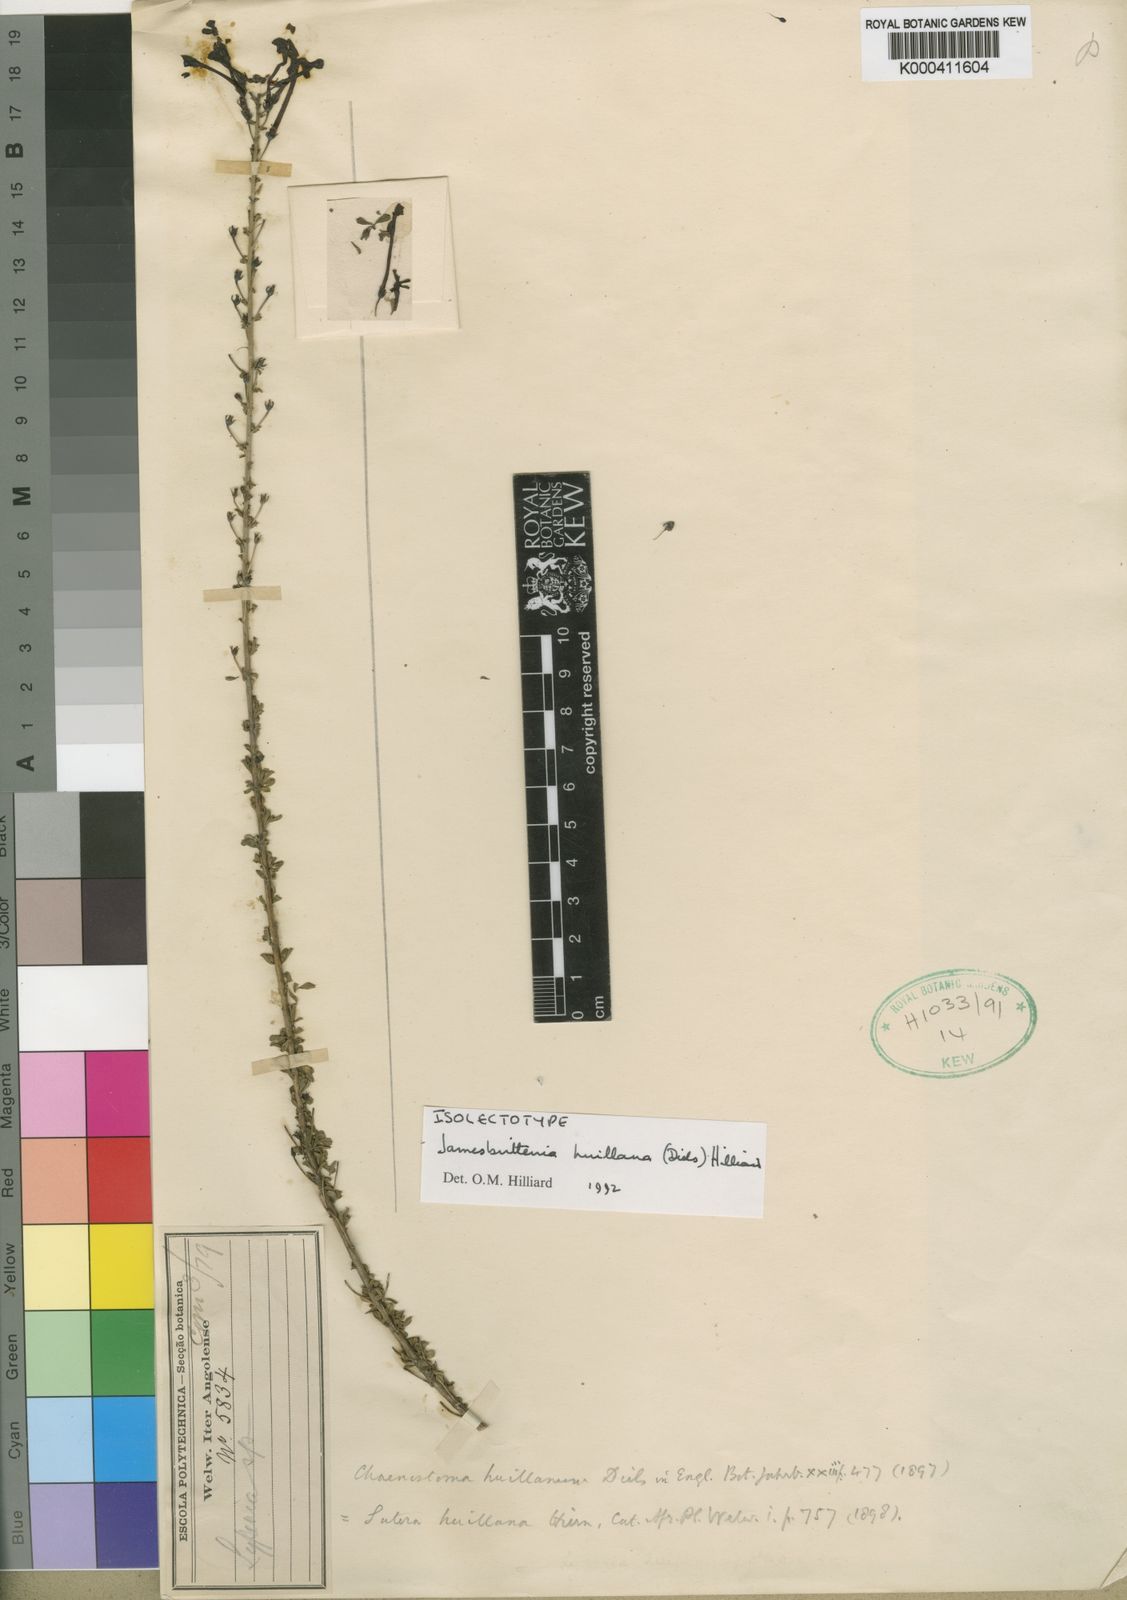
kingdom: Plantae
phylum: Tracheophyta
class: Magnoliopsida
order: Lamiales
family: Scrophulariaceae
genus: Jamesbrittenia
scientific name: Jamesbrittenia huillana
